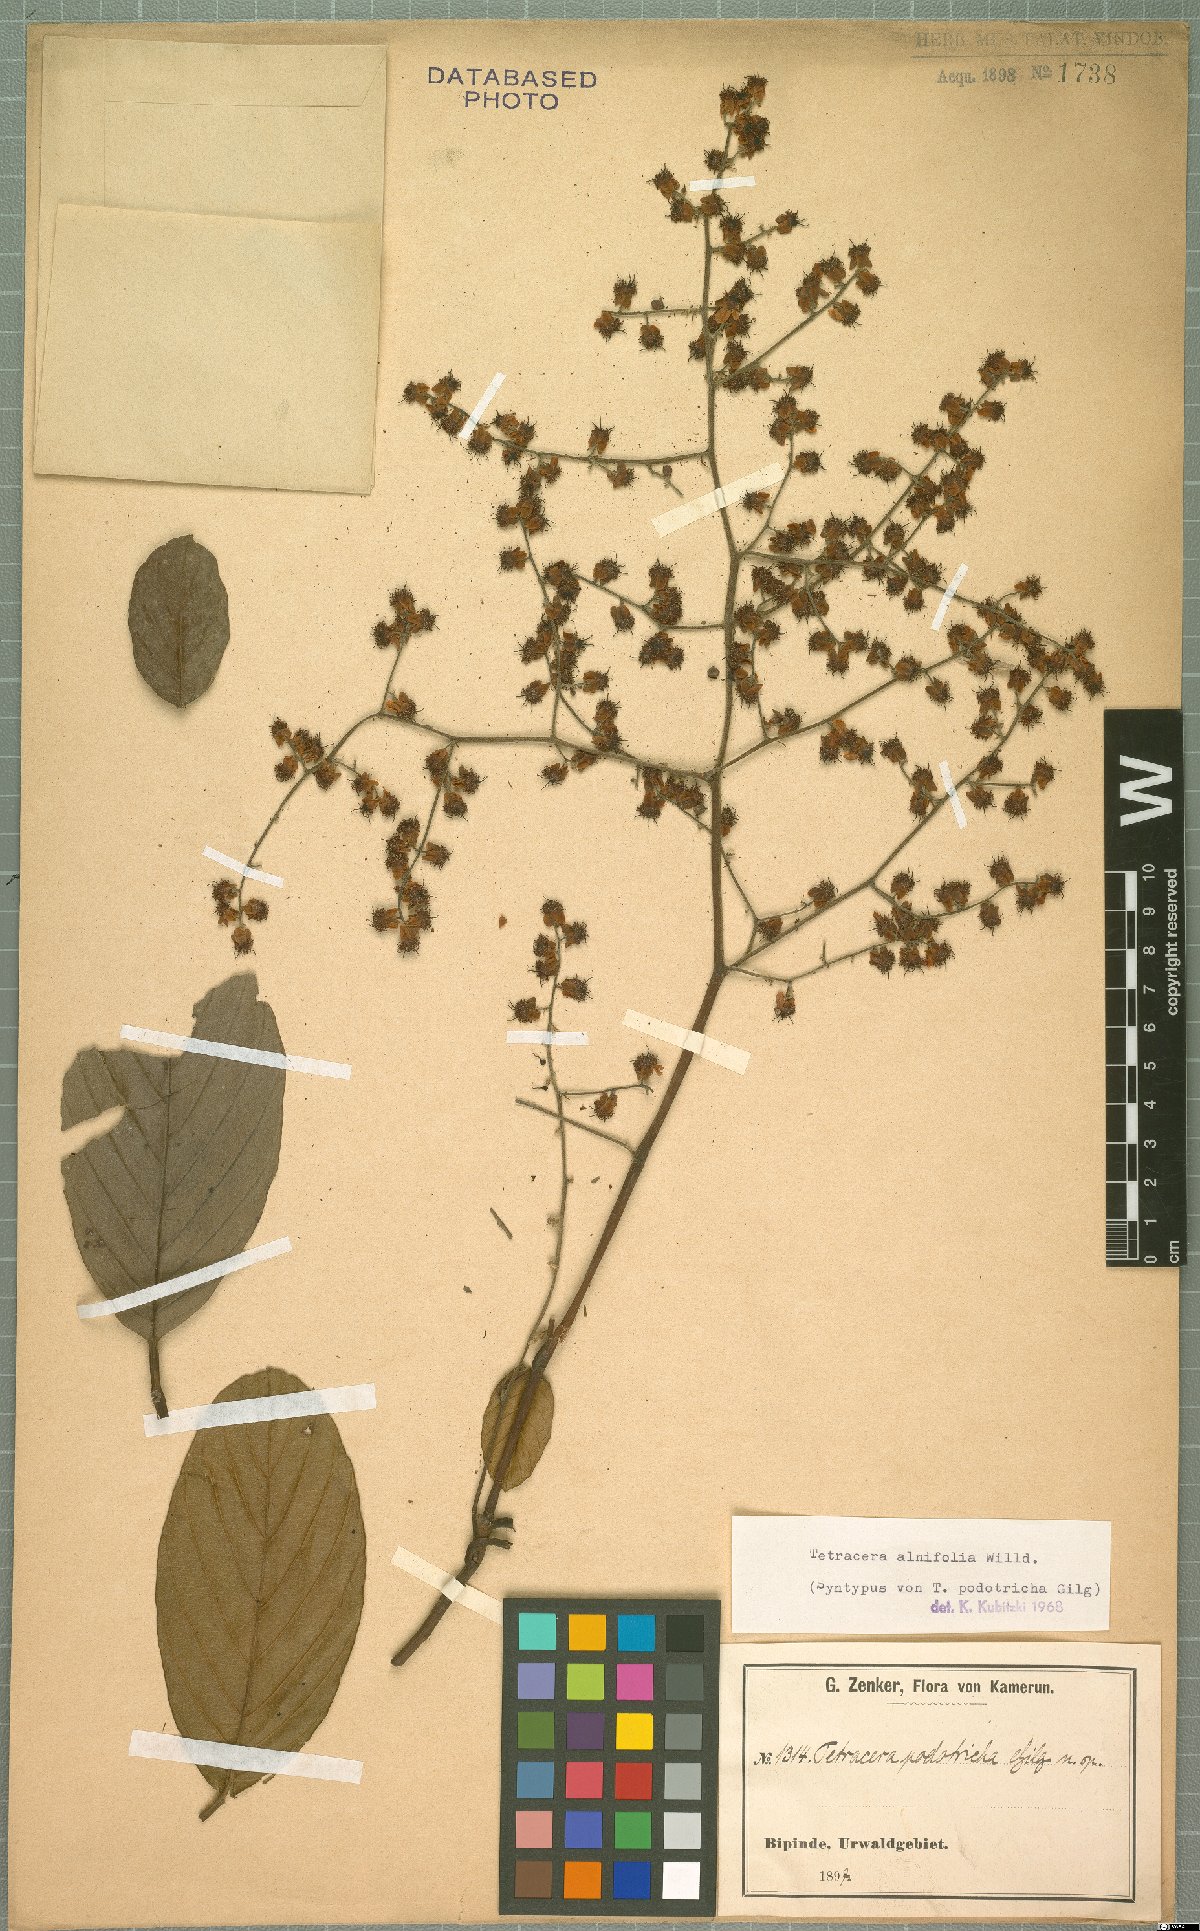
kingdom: Plantae
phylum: Tracheophyta
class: Magnoliopsida
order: Dilleniales
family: Dilleniaceae
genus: Tetracera
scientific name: Tetracera alnifolia
